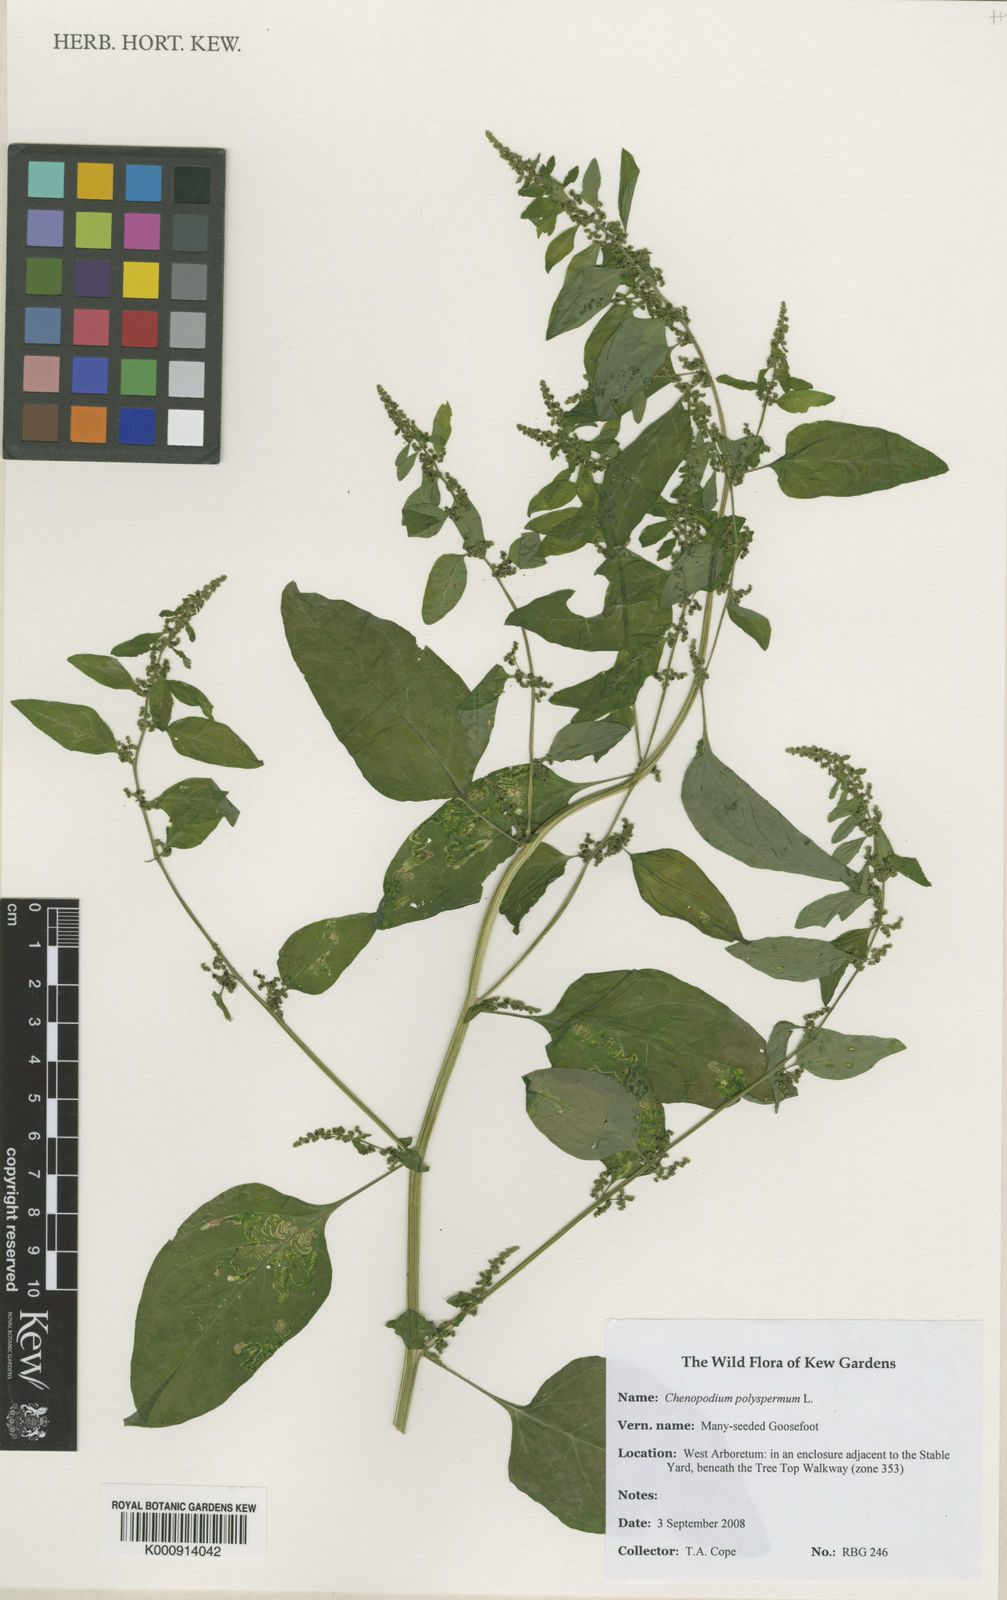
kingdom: Plantae
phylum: Tracheophyta
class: Magnoliopsida
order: Caryophyllales
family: Amaranthaceae
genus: Lipandra
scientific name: Lipandra polysperma
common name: Many-seed goosefoot
